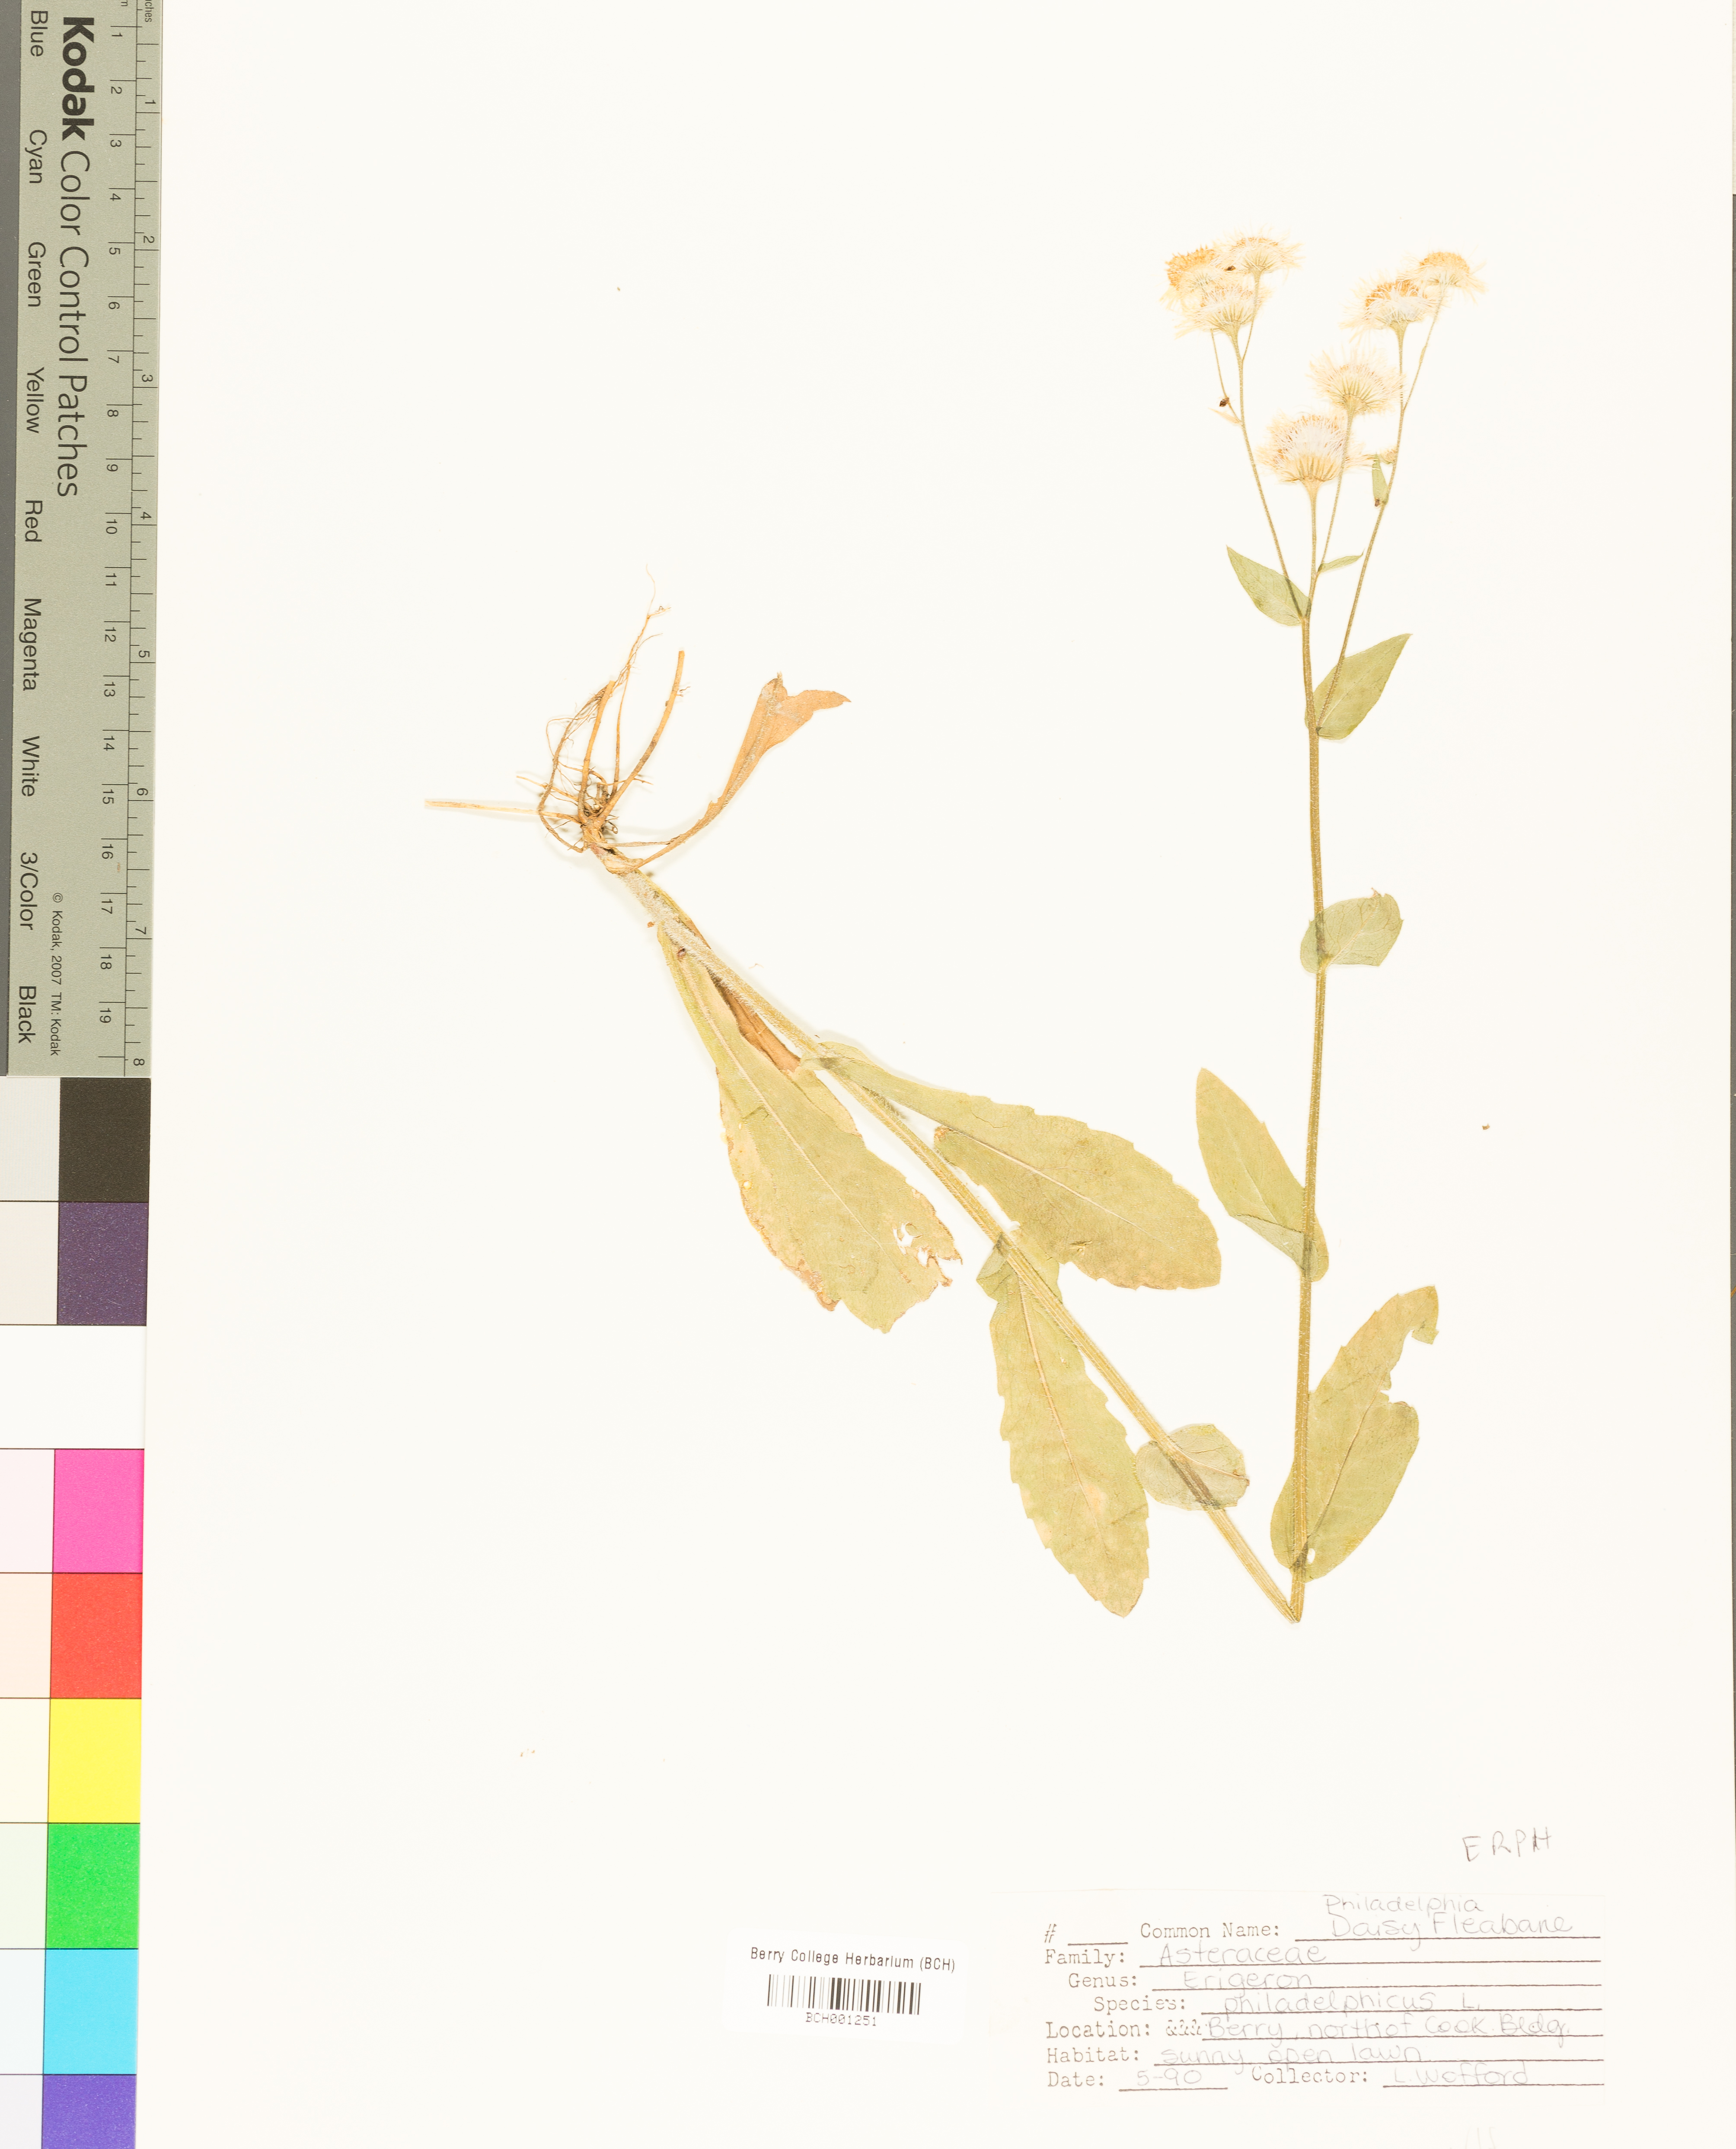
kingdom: Plantae
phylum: Tracheophyta
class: Magnoliopsida
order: Asterales
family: Asteraceae
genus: Erigeron
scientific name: Erigeron philadelphicus
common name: Robin's-plantain
